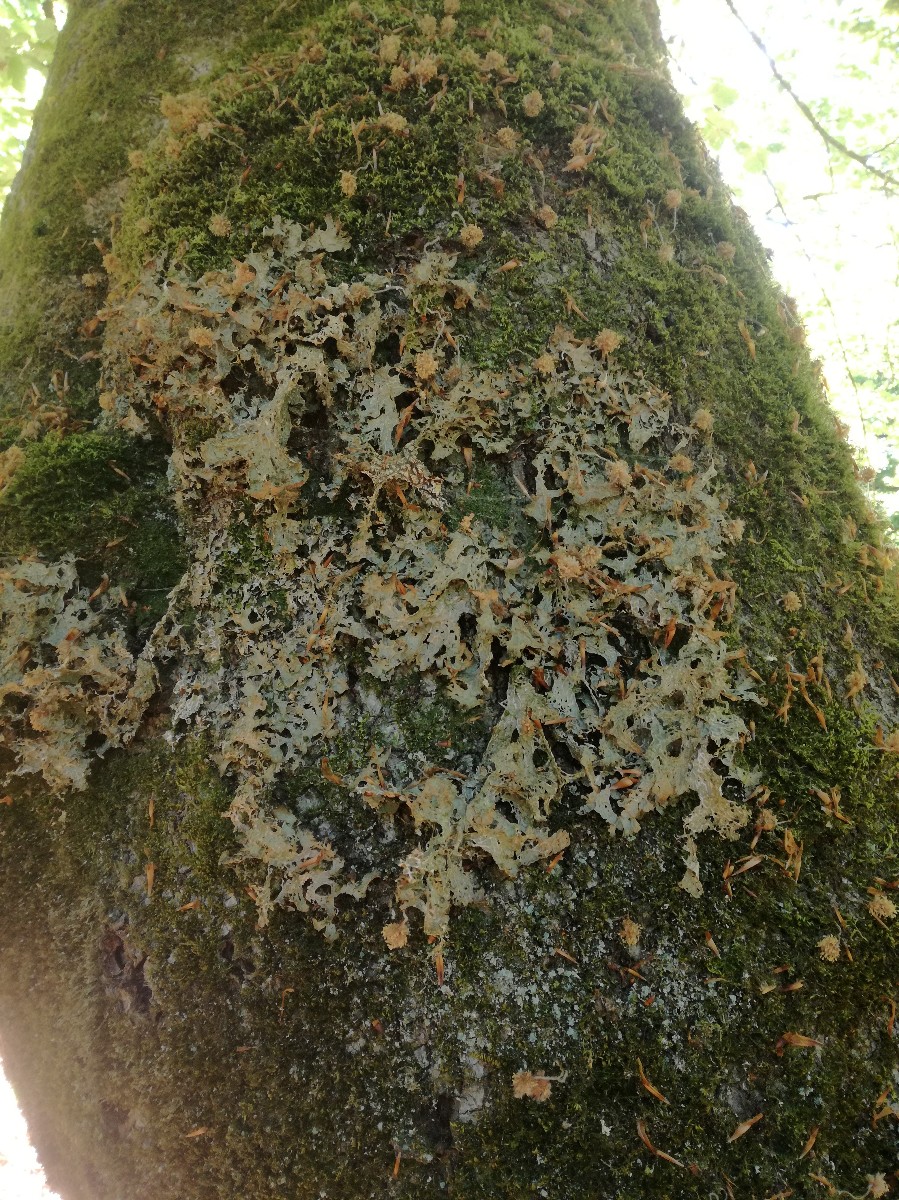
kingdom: Fungi
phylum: Ascomycota
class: Lecanoromycetes
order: Peltigerales
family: Lobariaceae
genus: Lobaria
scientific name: Lobaria pulmonaria
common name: almindelig lungelav
